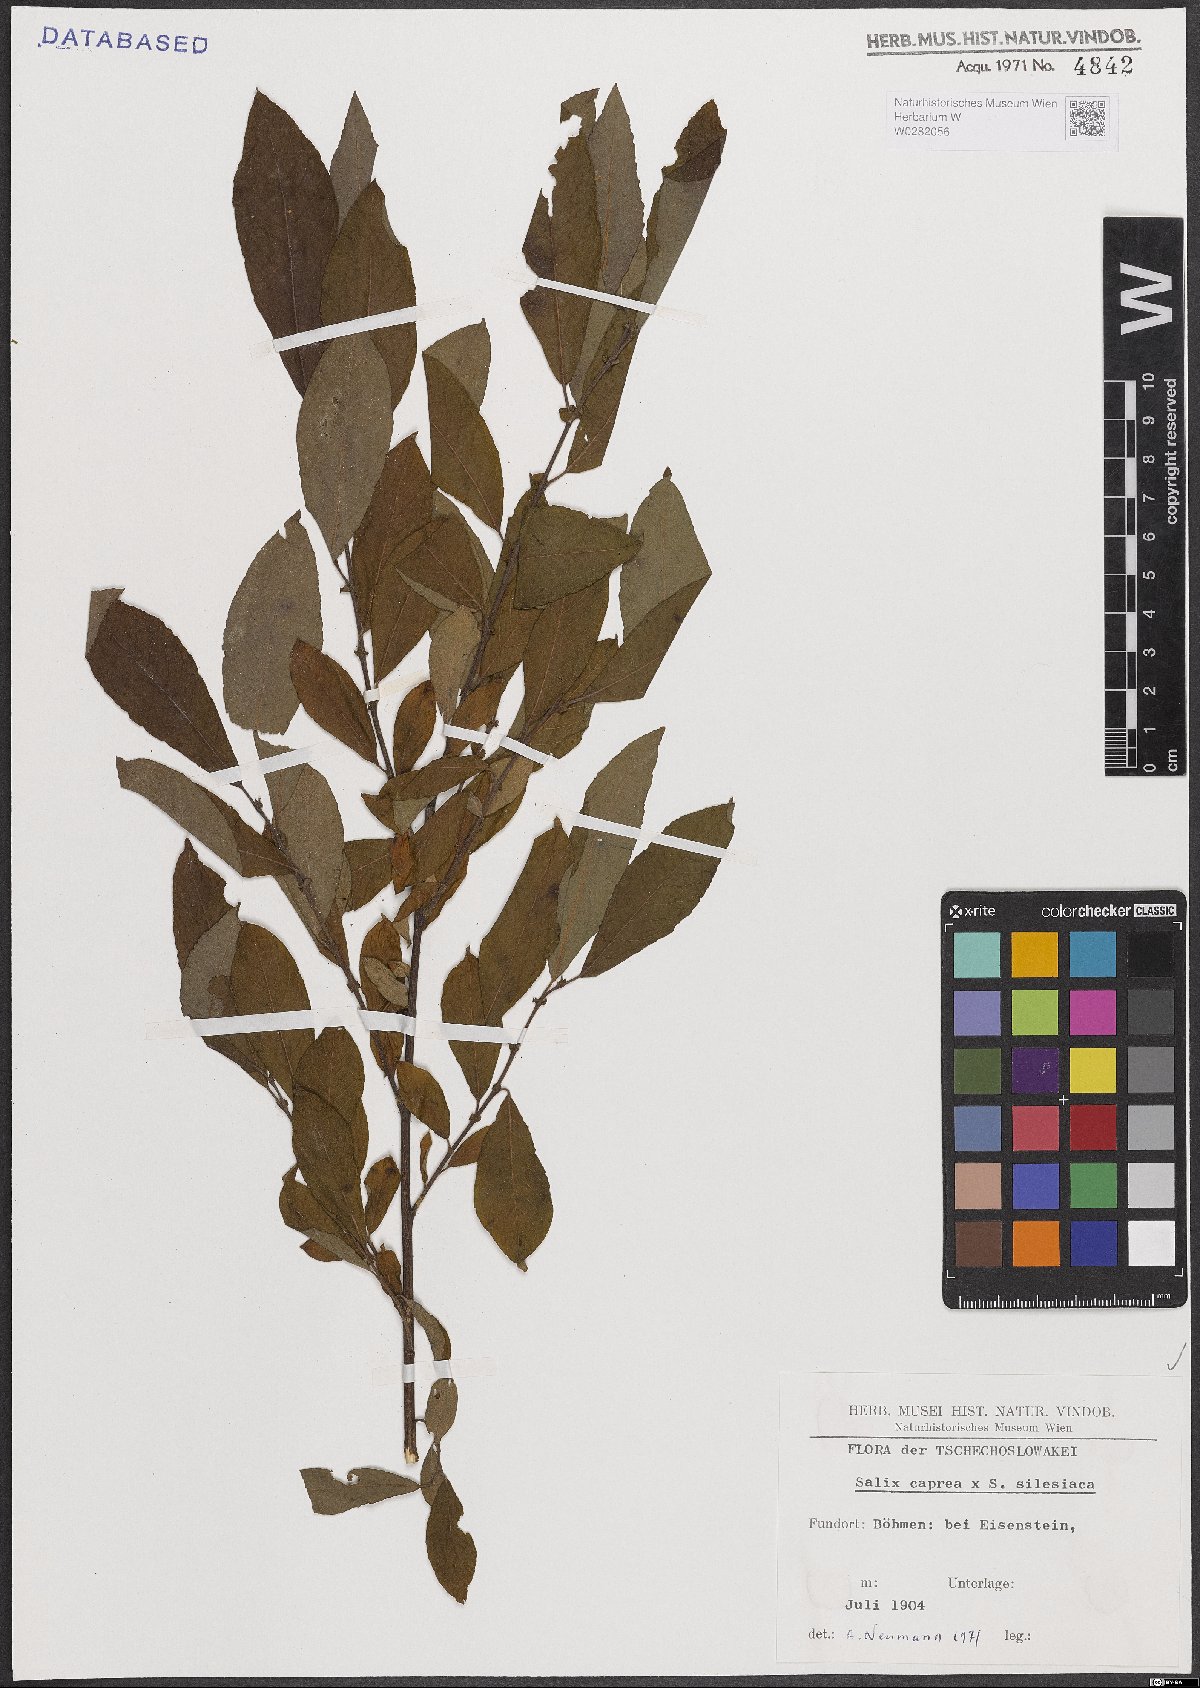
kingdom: Plantae
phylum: Tracheophyta
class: Magnoliopsida
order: Malpighiales
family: Salicaceae
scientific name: Salicaceae
